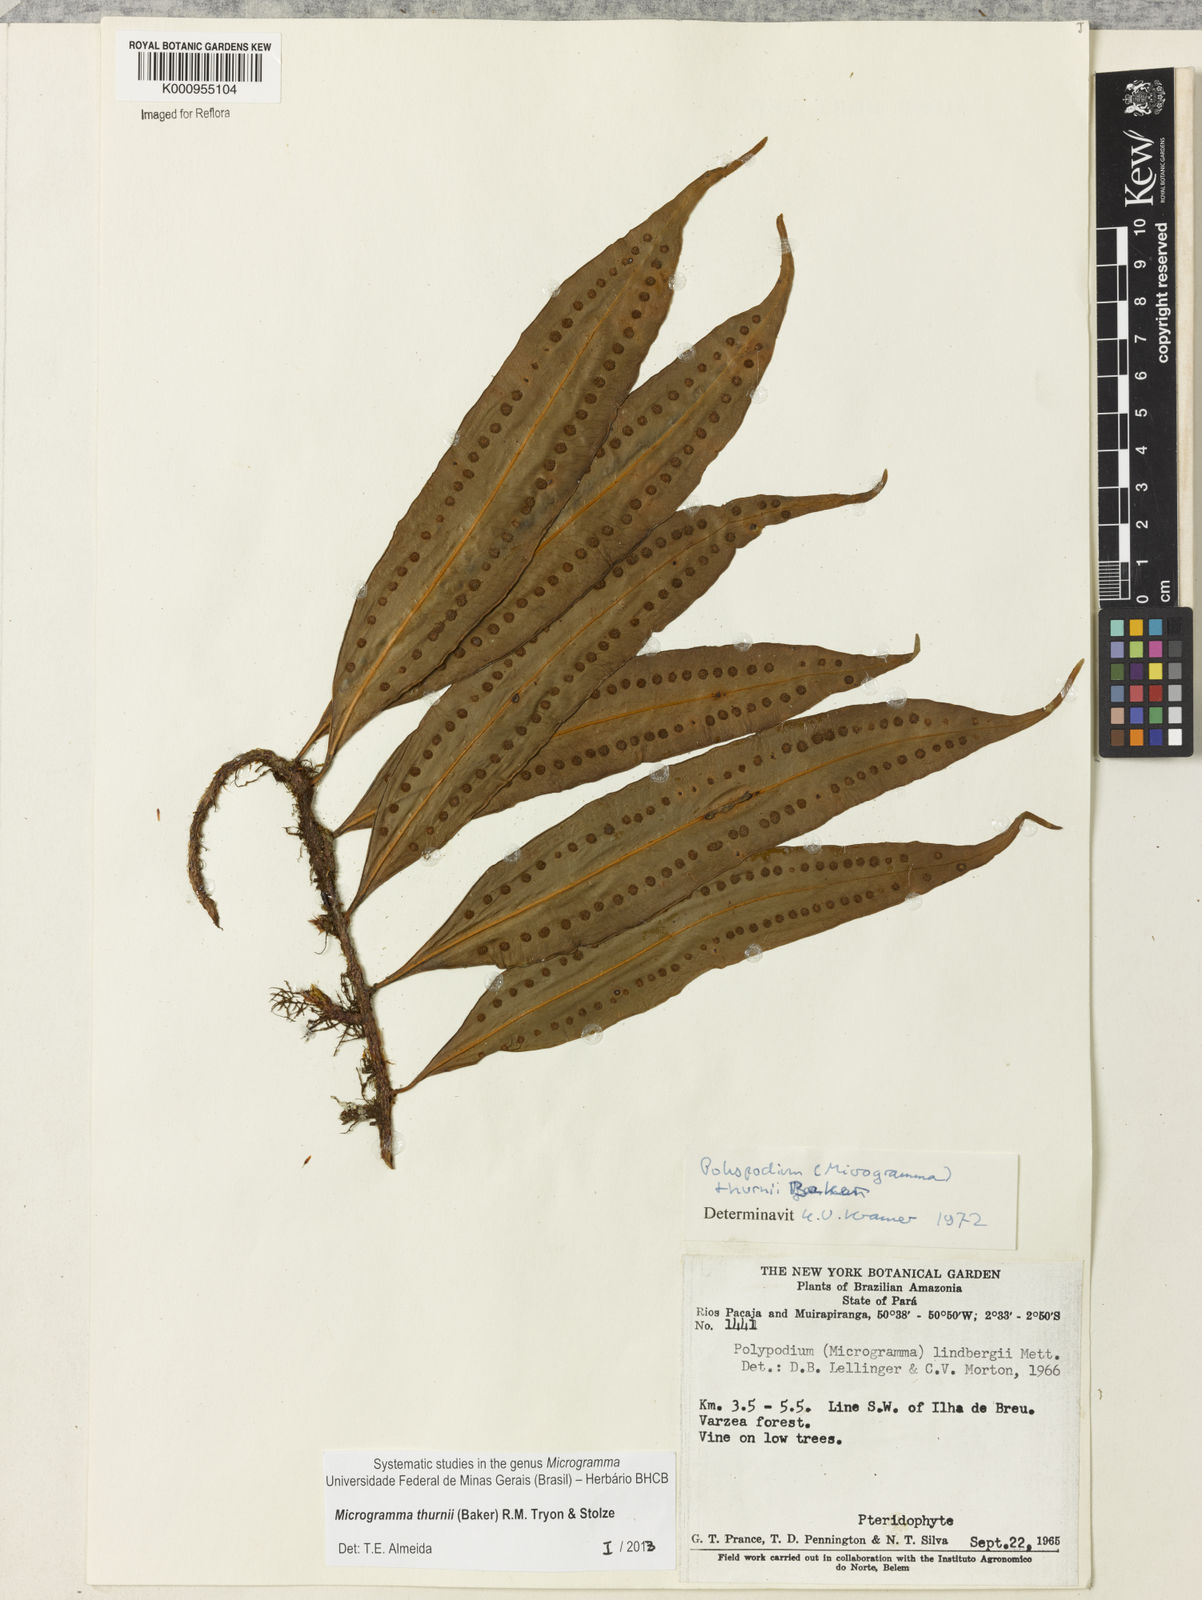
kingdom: Plantae
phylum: Tracheophyta
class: Polypodiopsida
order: Polypodiales
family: Polypodiaceae
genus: Microgramma
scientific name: Microgramma thurnii
